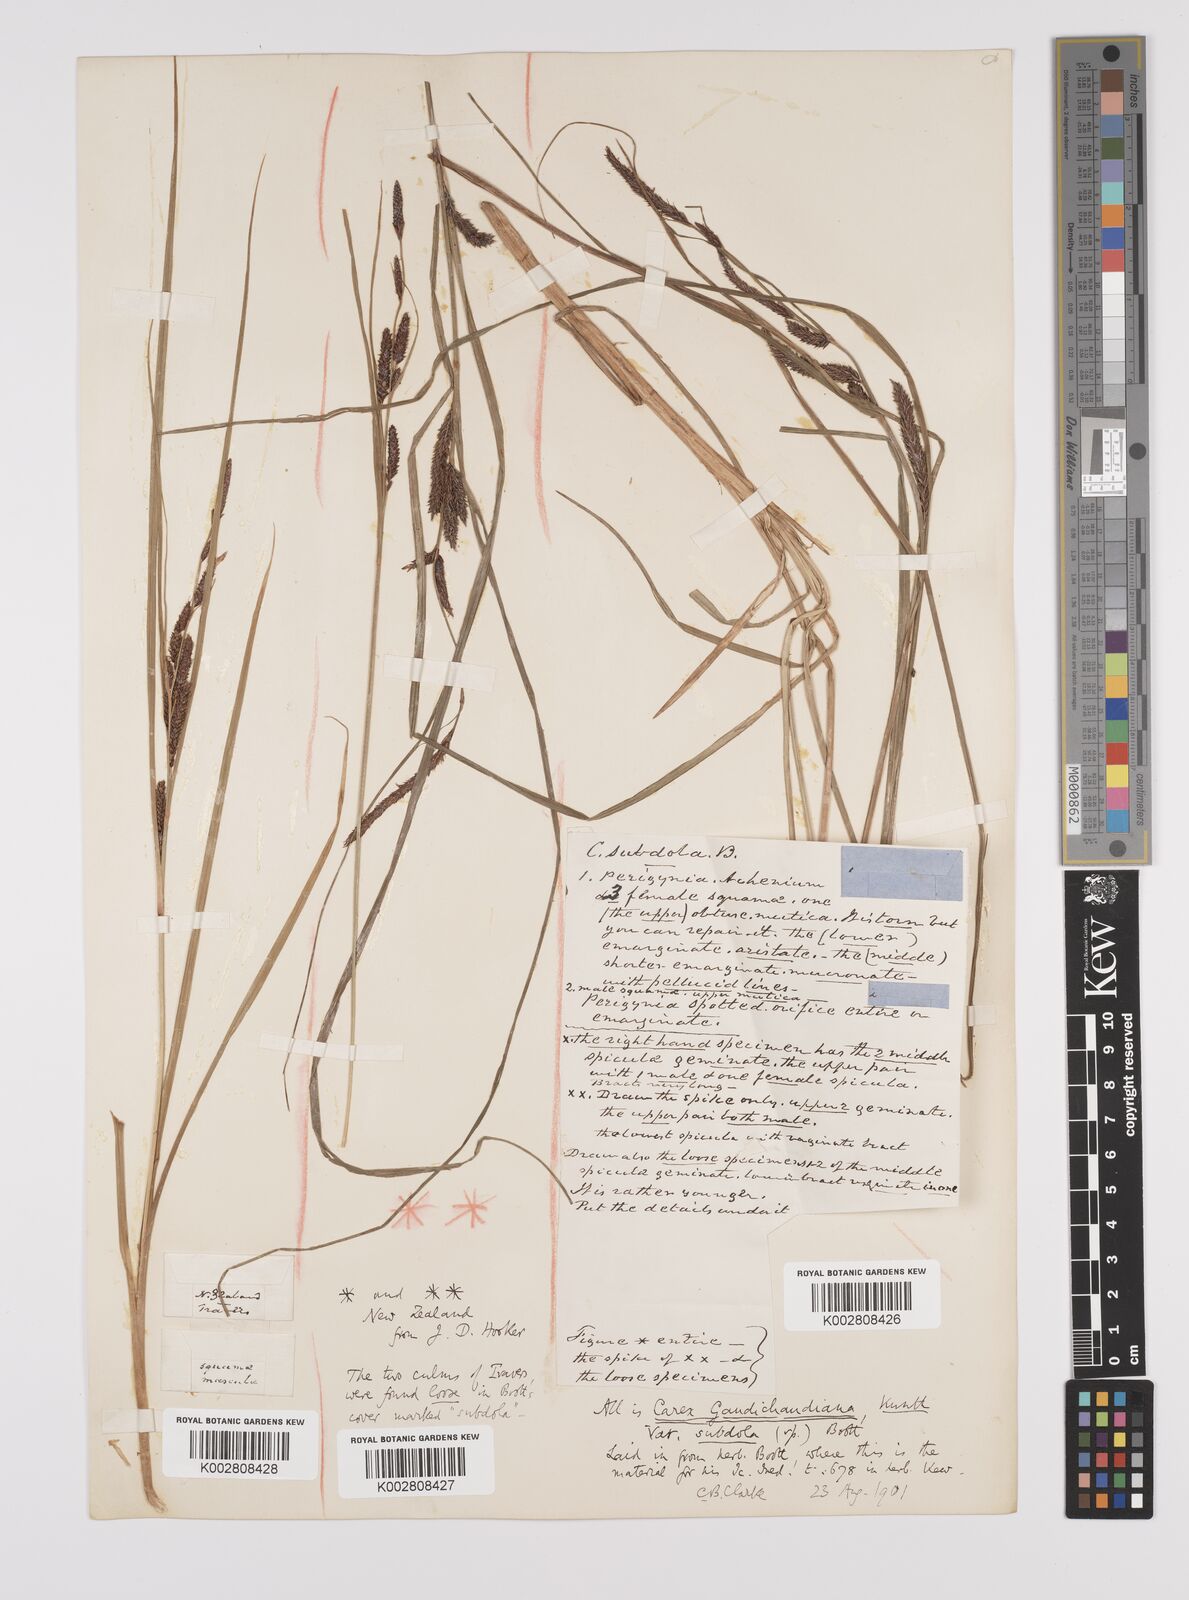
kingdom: Plantae
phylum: Tracheophyta
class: Liliopsida
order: Poales
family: Cyperaceae
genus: Carex
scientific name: Carex subdola
